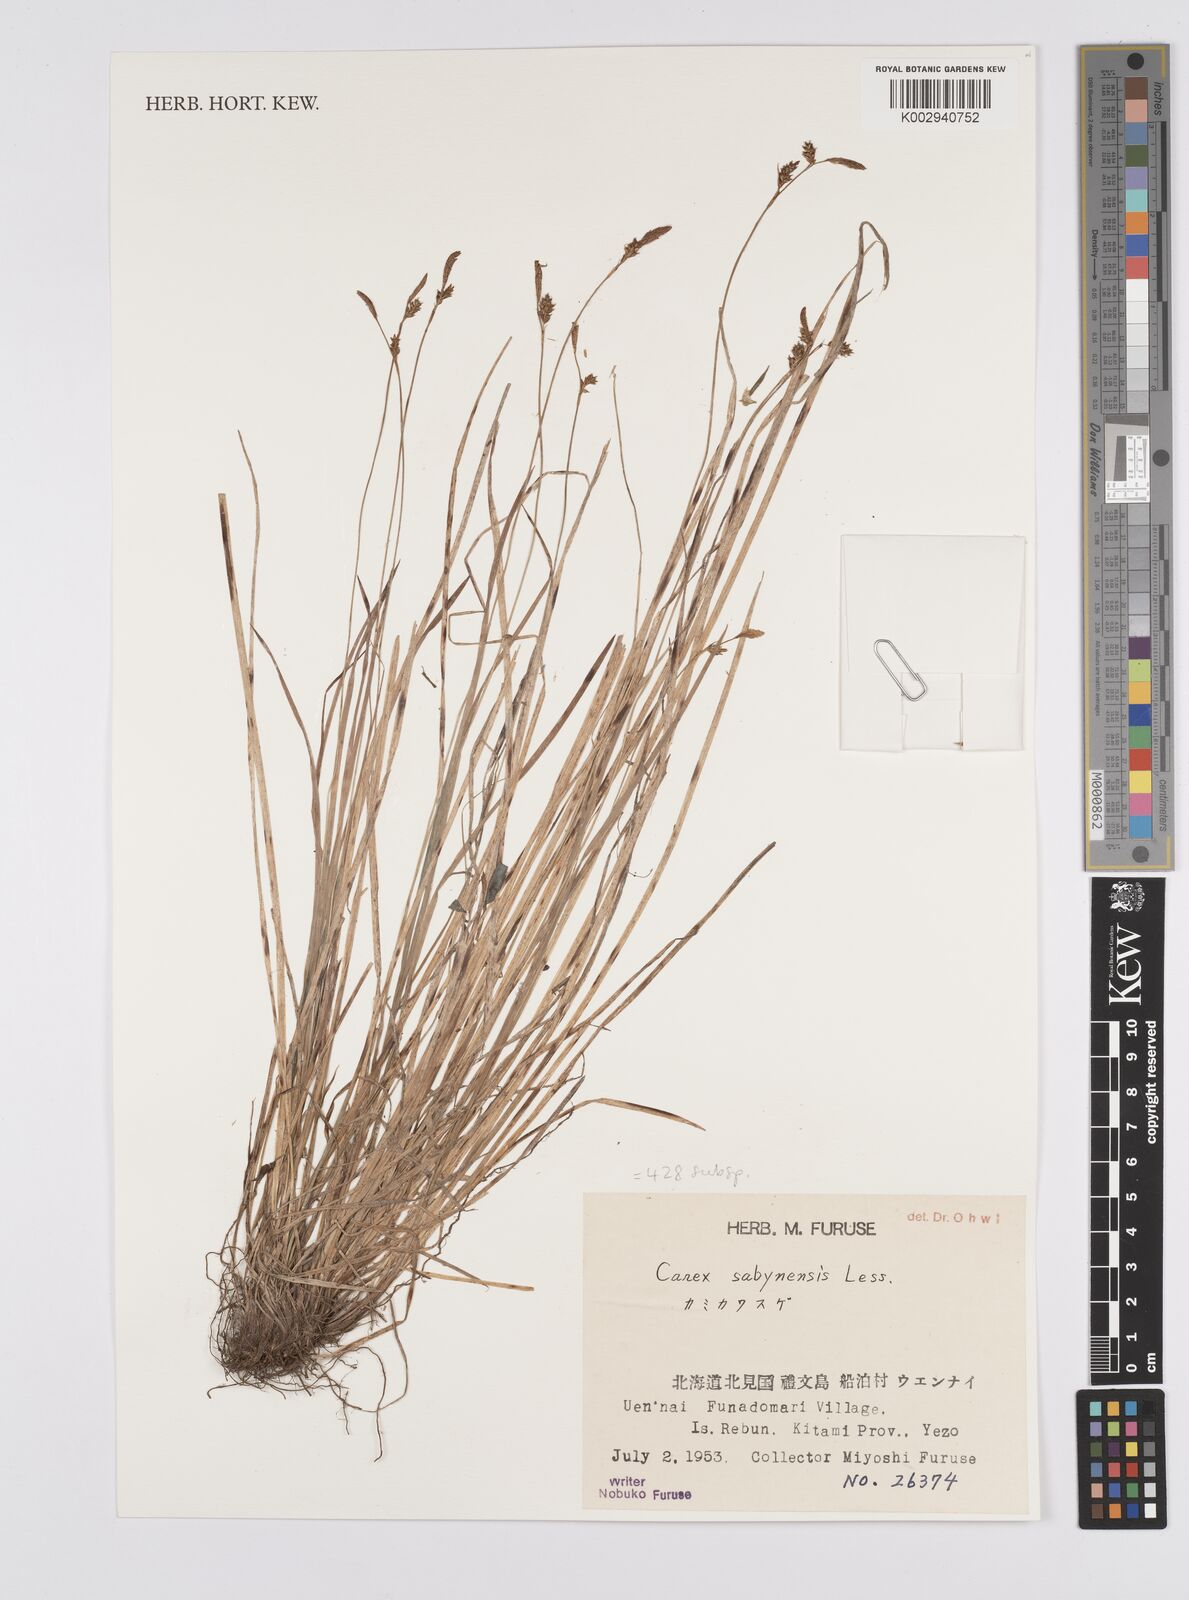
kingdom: Plantae
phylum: Tracheophyta
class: Liliopsida
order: Poales
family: Cyperaceae
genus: Carex
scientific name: Carex umbrosa
